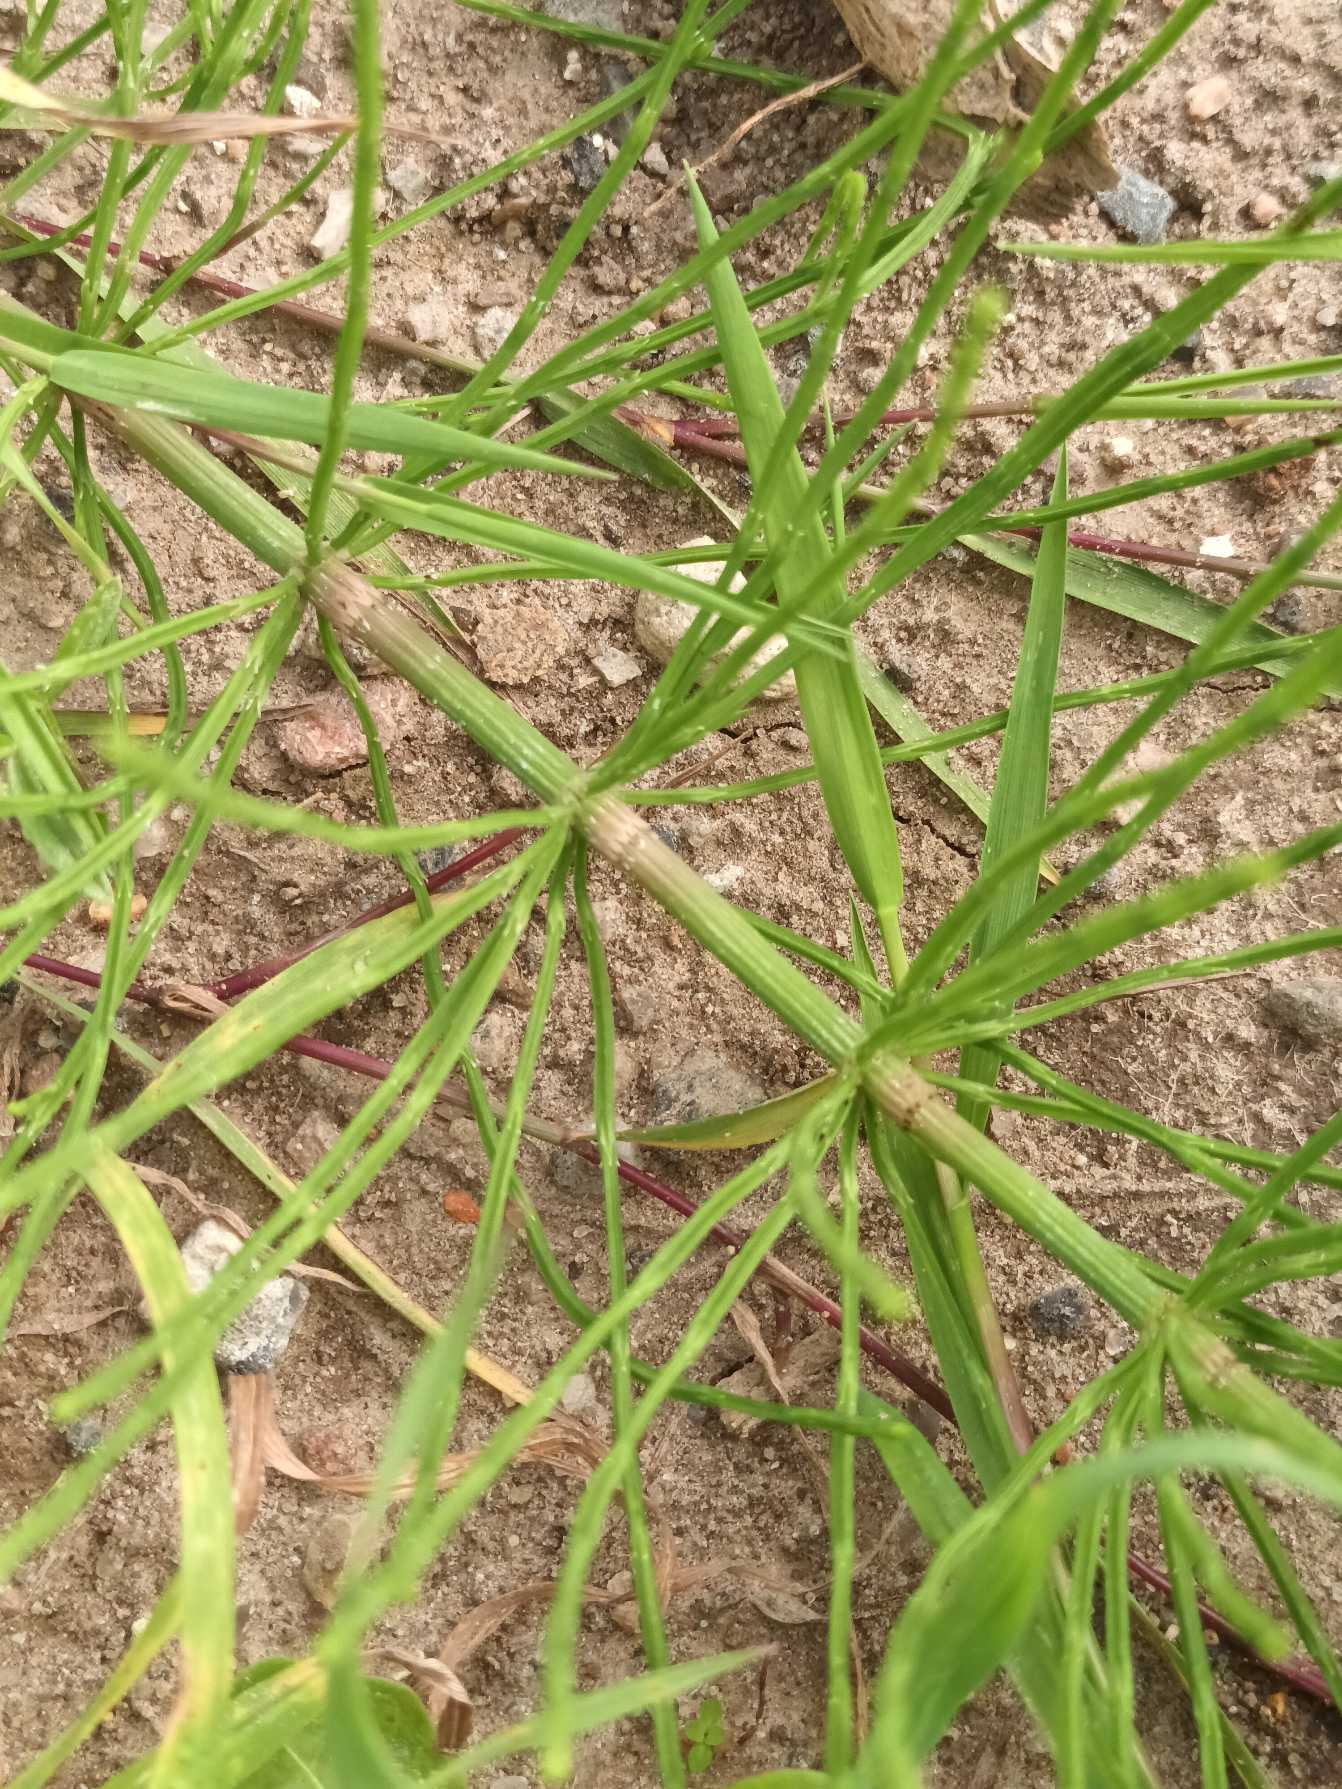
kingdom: Plantae
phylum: Tracheophyta
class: Polypodiopsida
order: Equisetales
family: Equisetaceae
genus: Equisetum
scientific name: Equisetum arvense
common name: Ager-padderok
